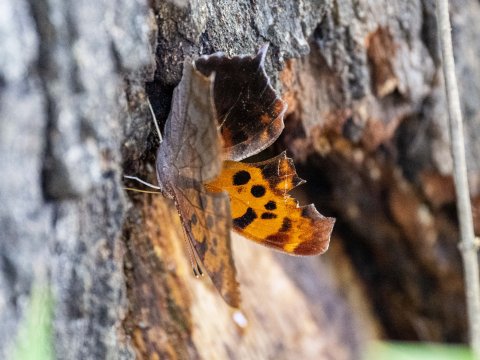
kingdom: Animalia
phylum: Arthropoda
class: Insecta
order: Lepidoptera
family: Nymphalidae
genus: Polygonia
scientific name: Polygonia interrogationis
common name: Question Mark
